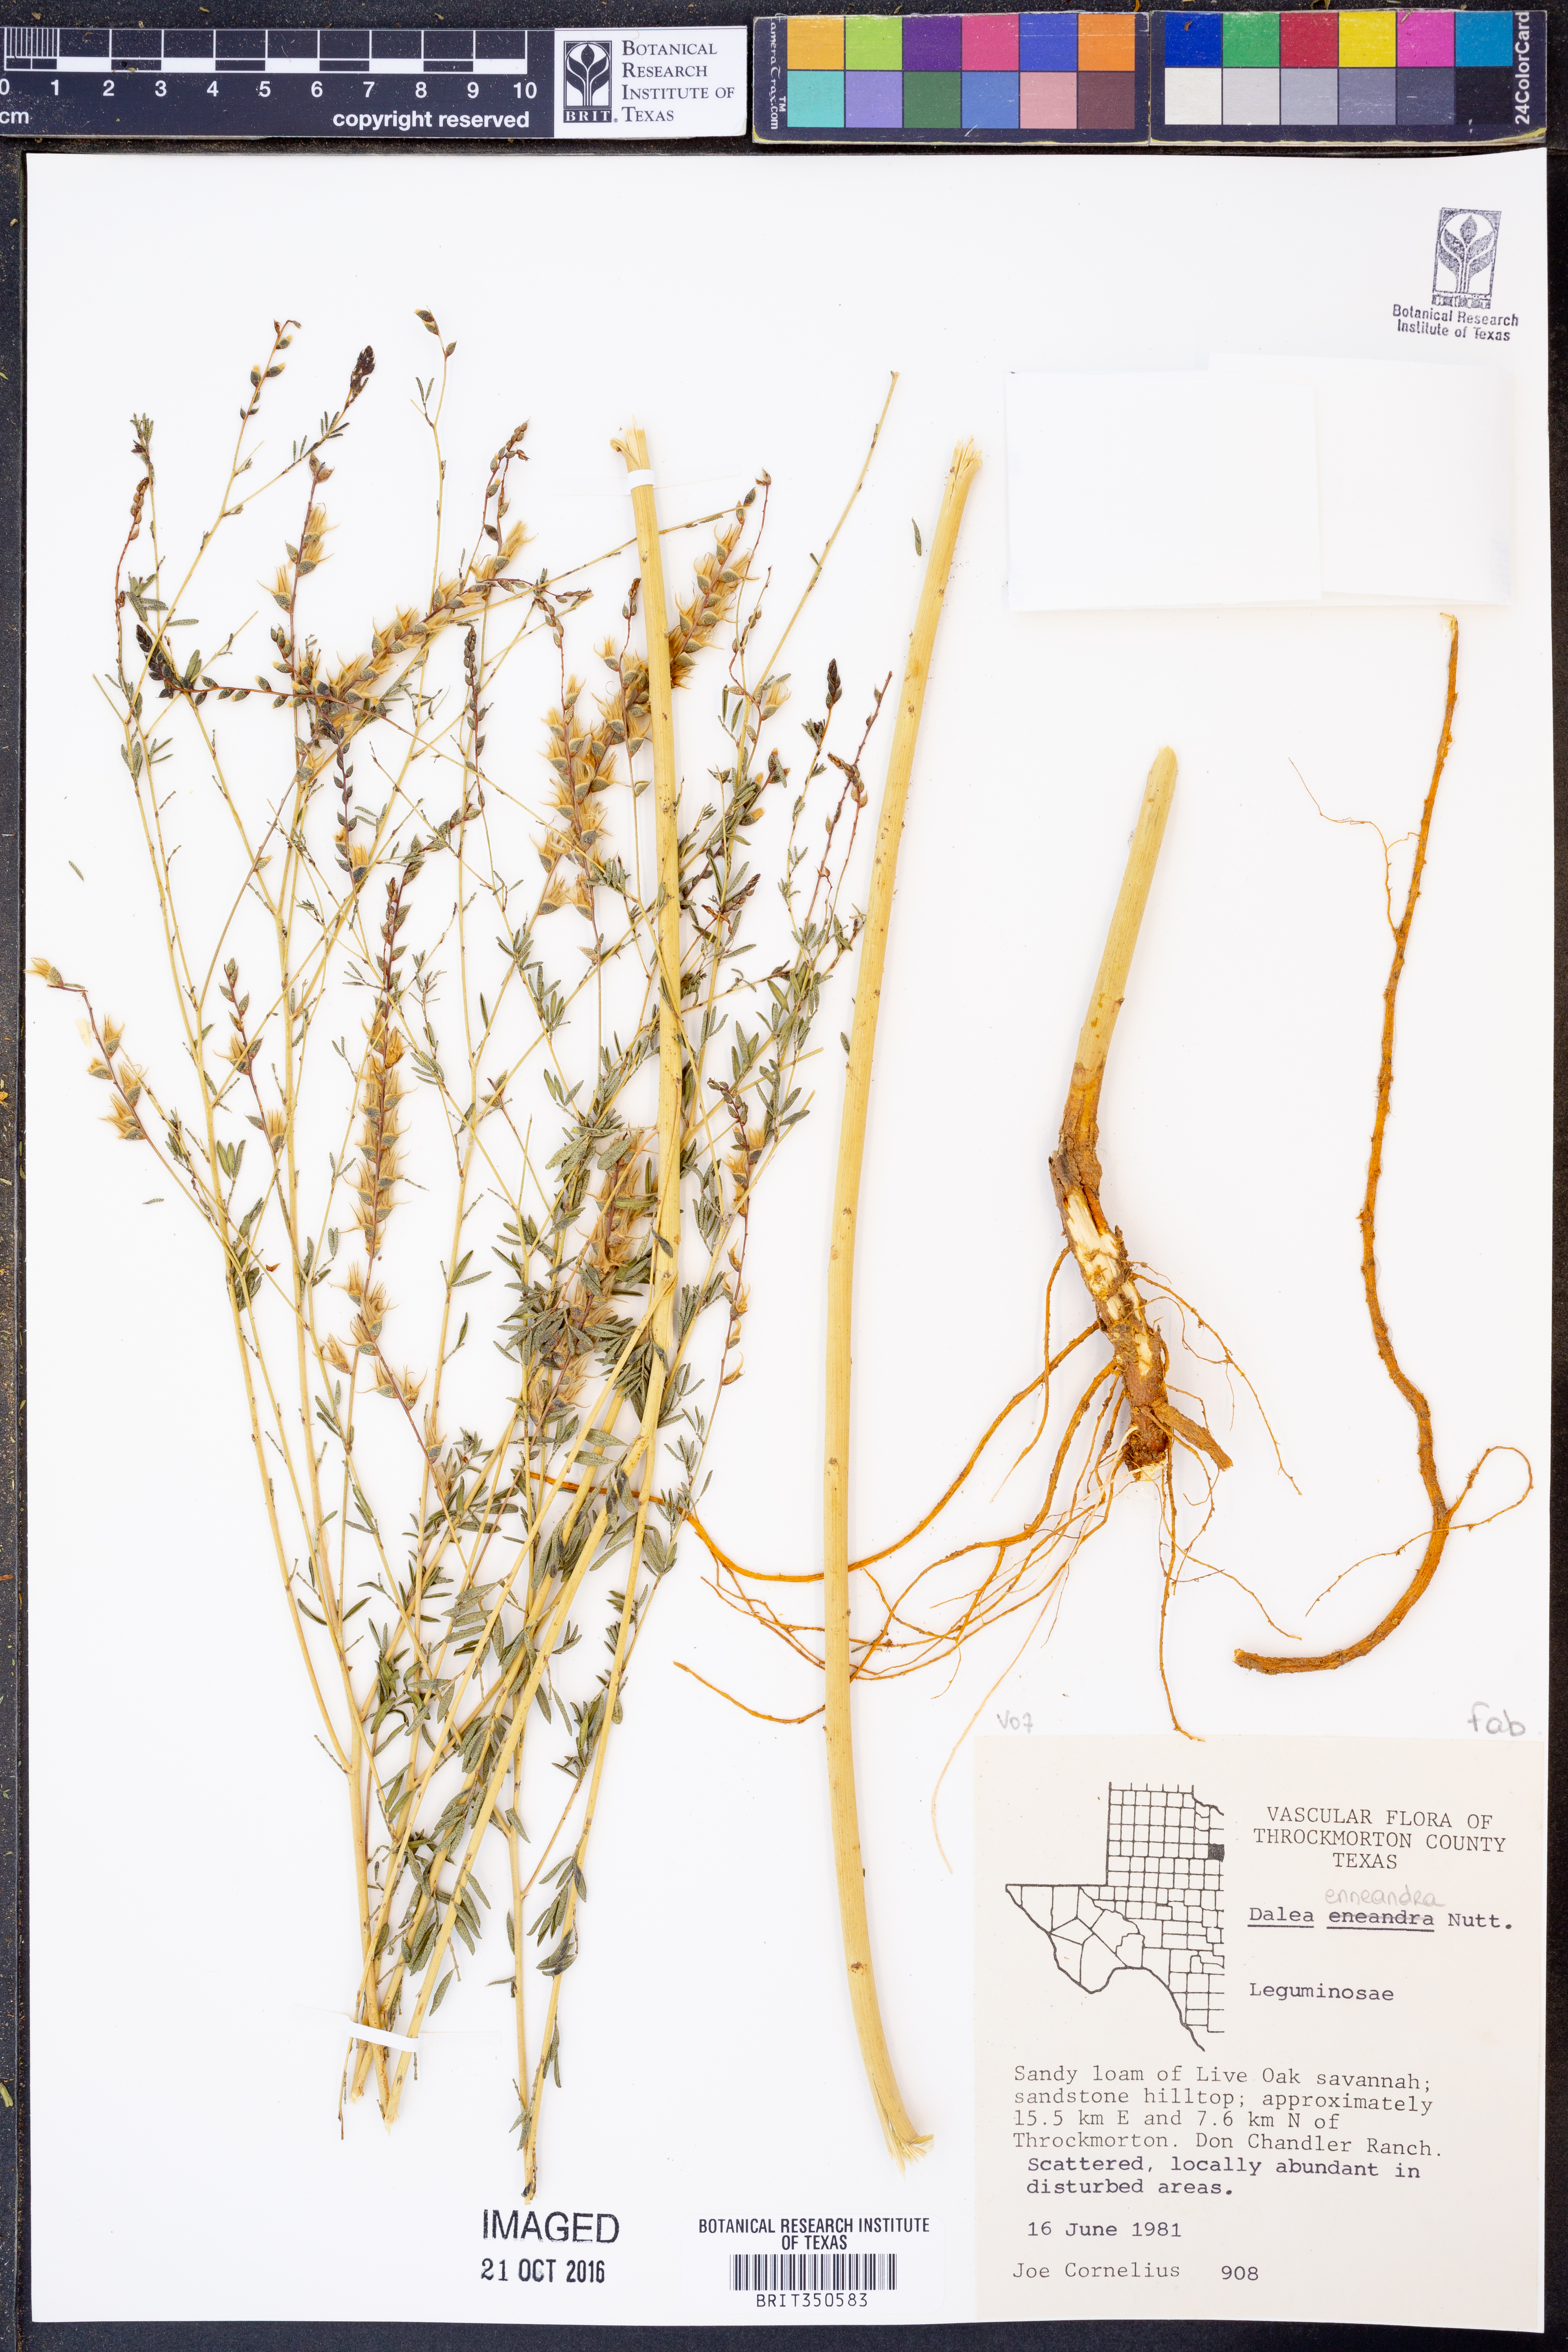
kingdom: Plantae
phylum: Tracheophyta
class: Magnoliopsida
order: Fabales
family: Fabaceae
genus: Dalea
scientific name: Dalea enneandra
